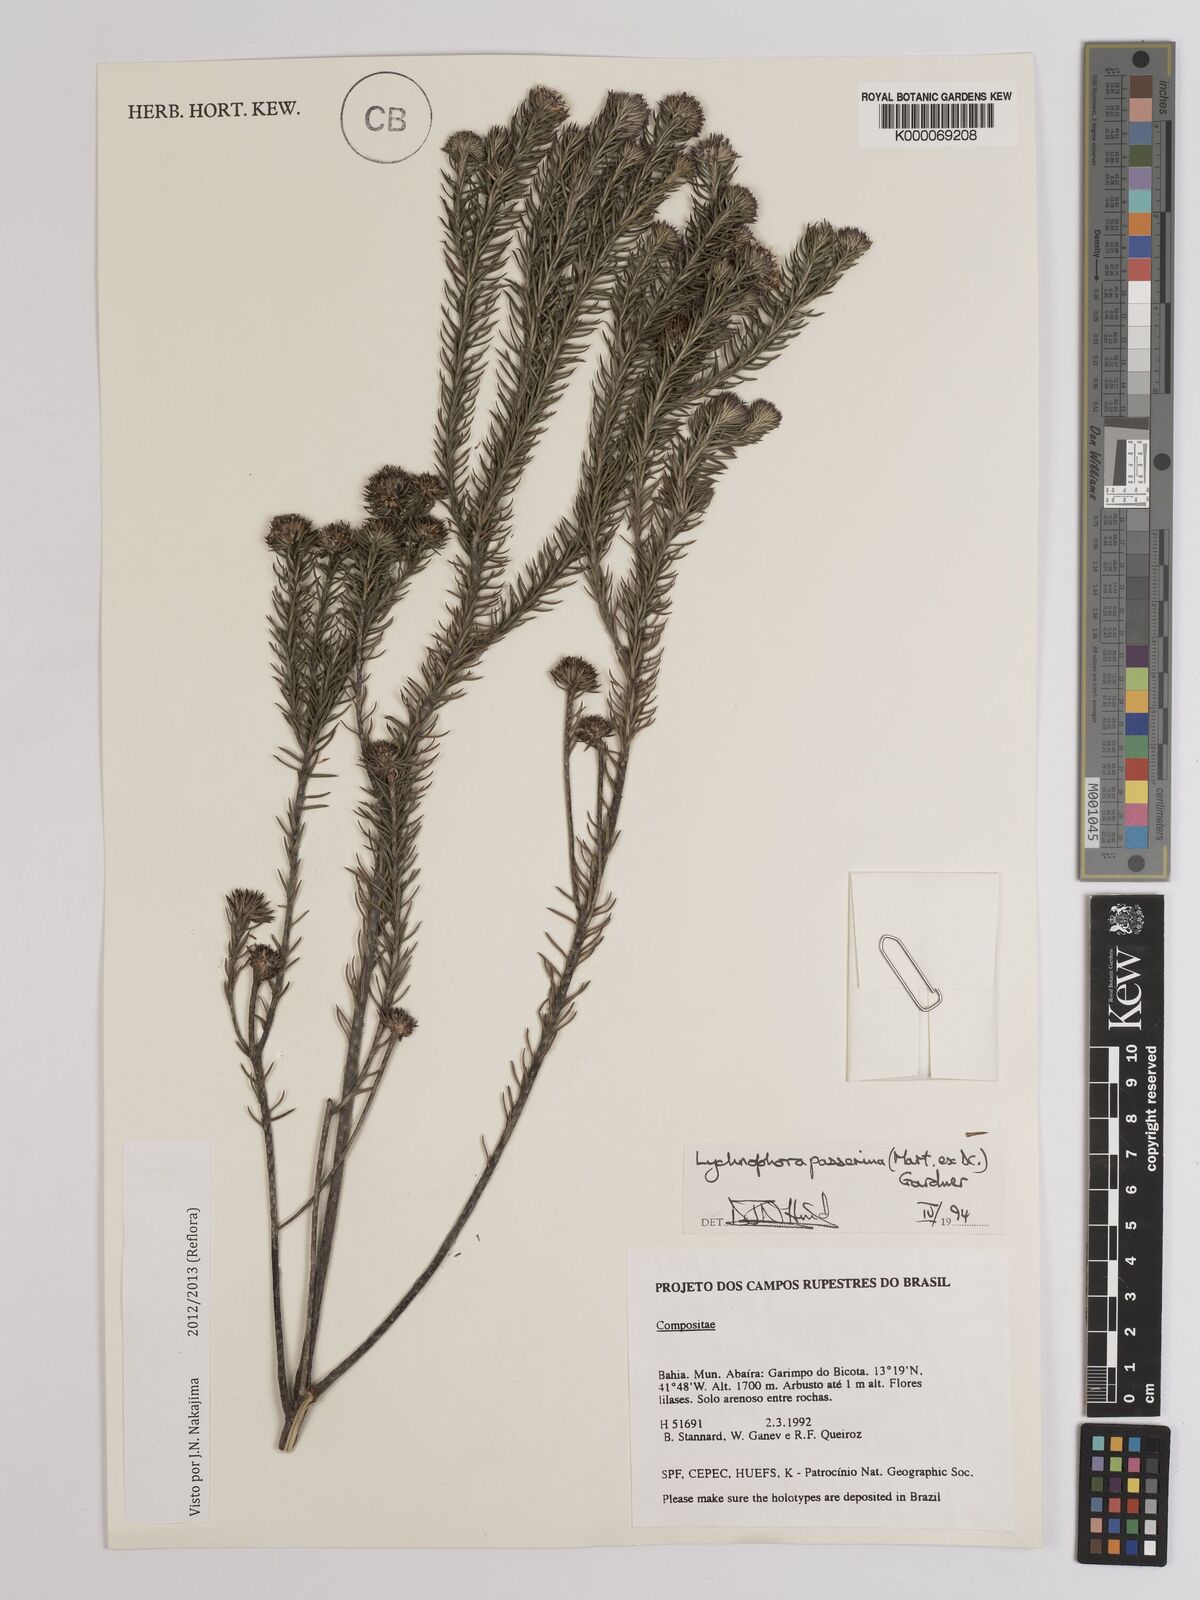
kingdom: Plantae
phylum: Tracheophyta
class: Magnoliopsida
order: Asterales
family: Asteraceae
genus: Lychnophora
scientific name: Lychnophora passerina
